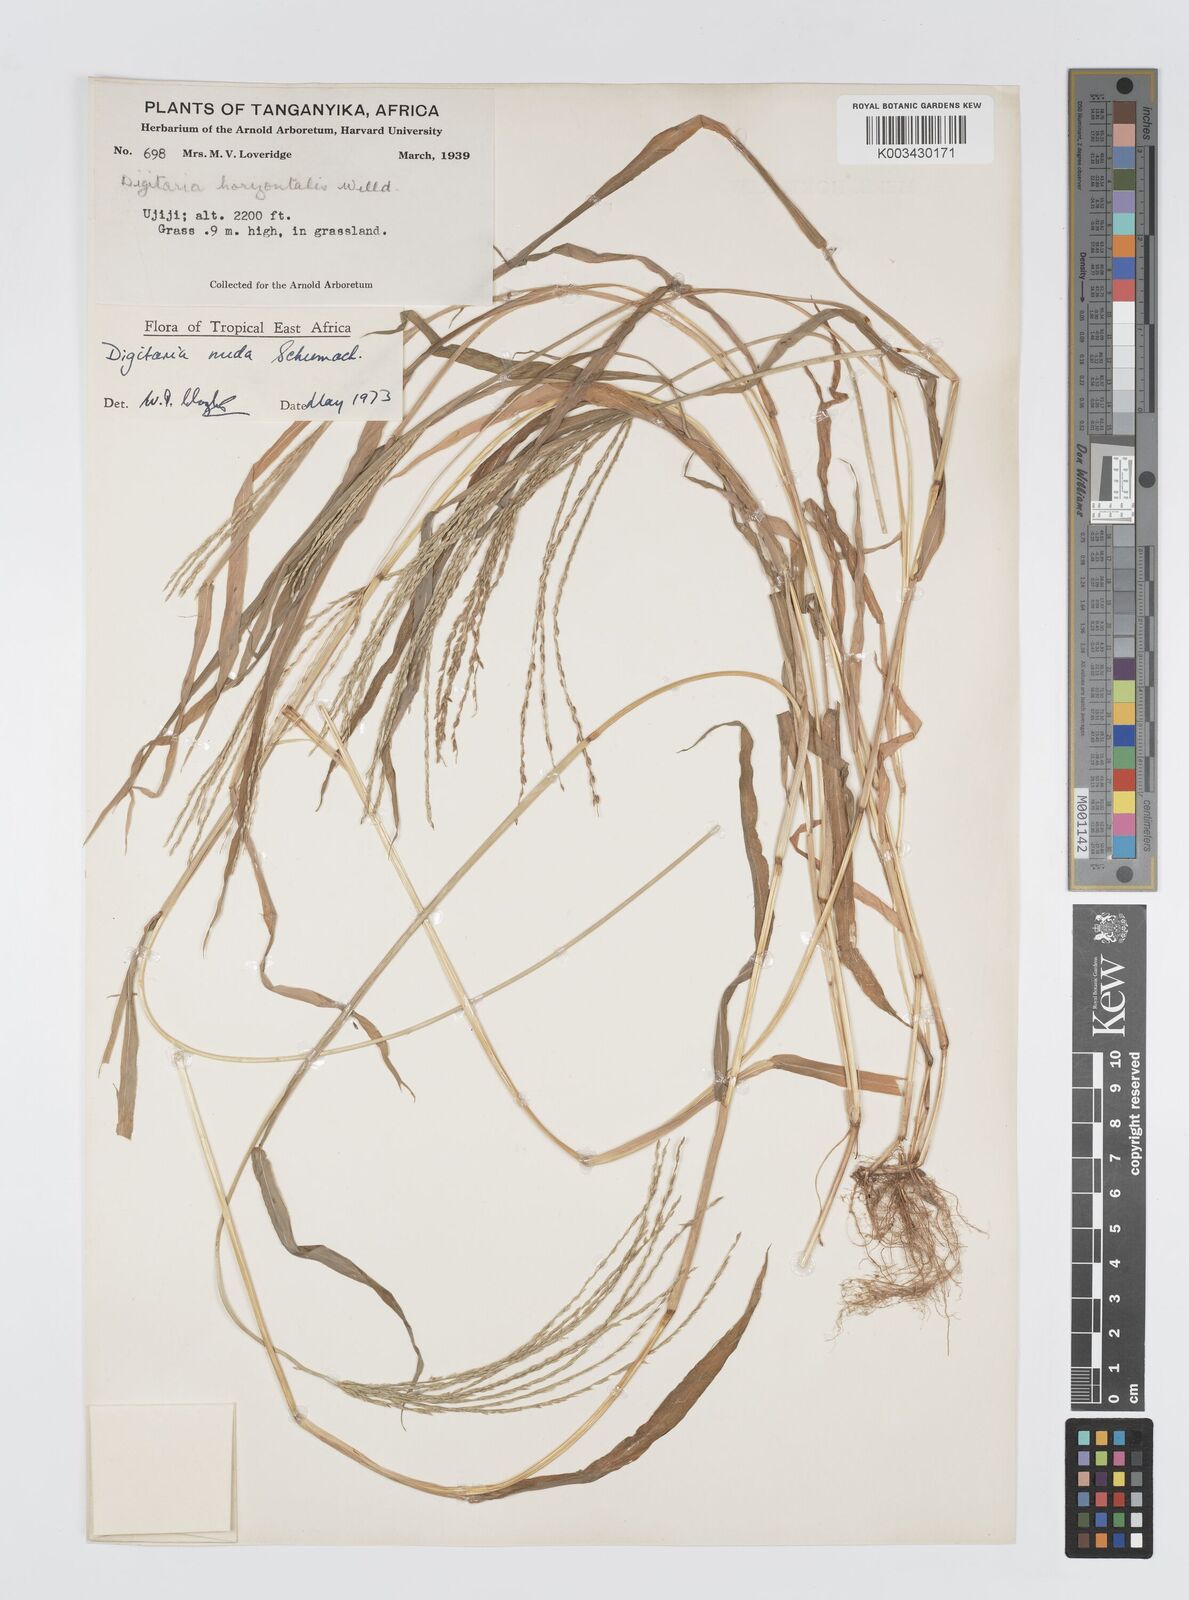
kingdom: Plantae
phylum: Tracheophyta
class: Liliopsida
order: Poales
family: Poaceae
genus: Digitaria
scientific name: Digitaria nuda
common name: Naked crabgrass
